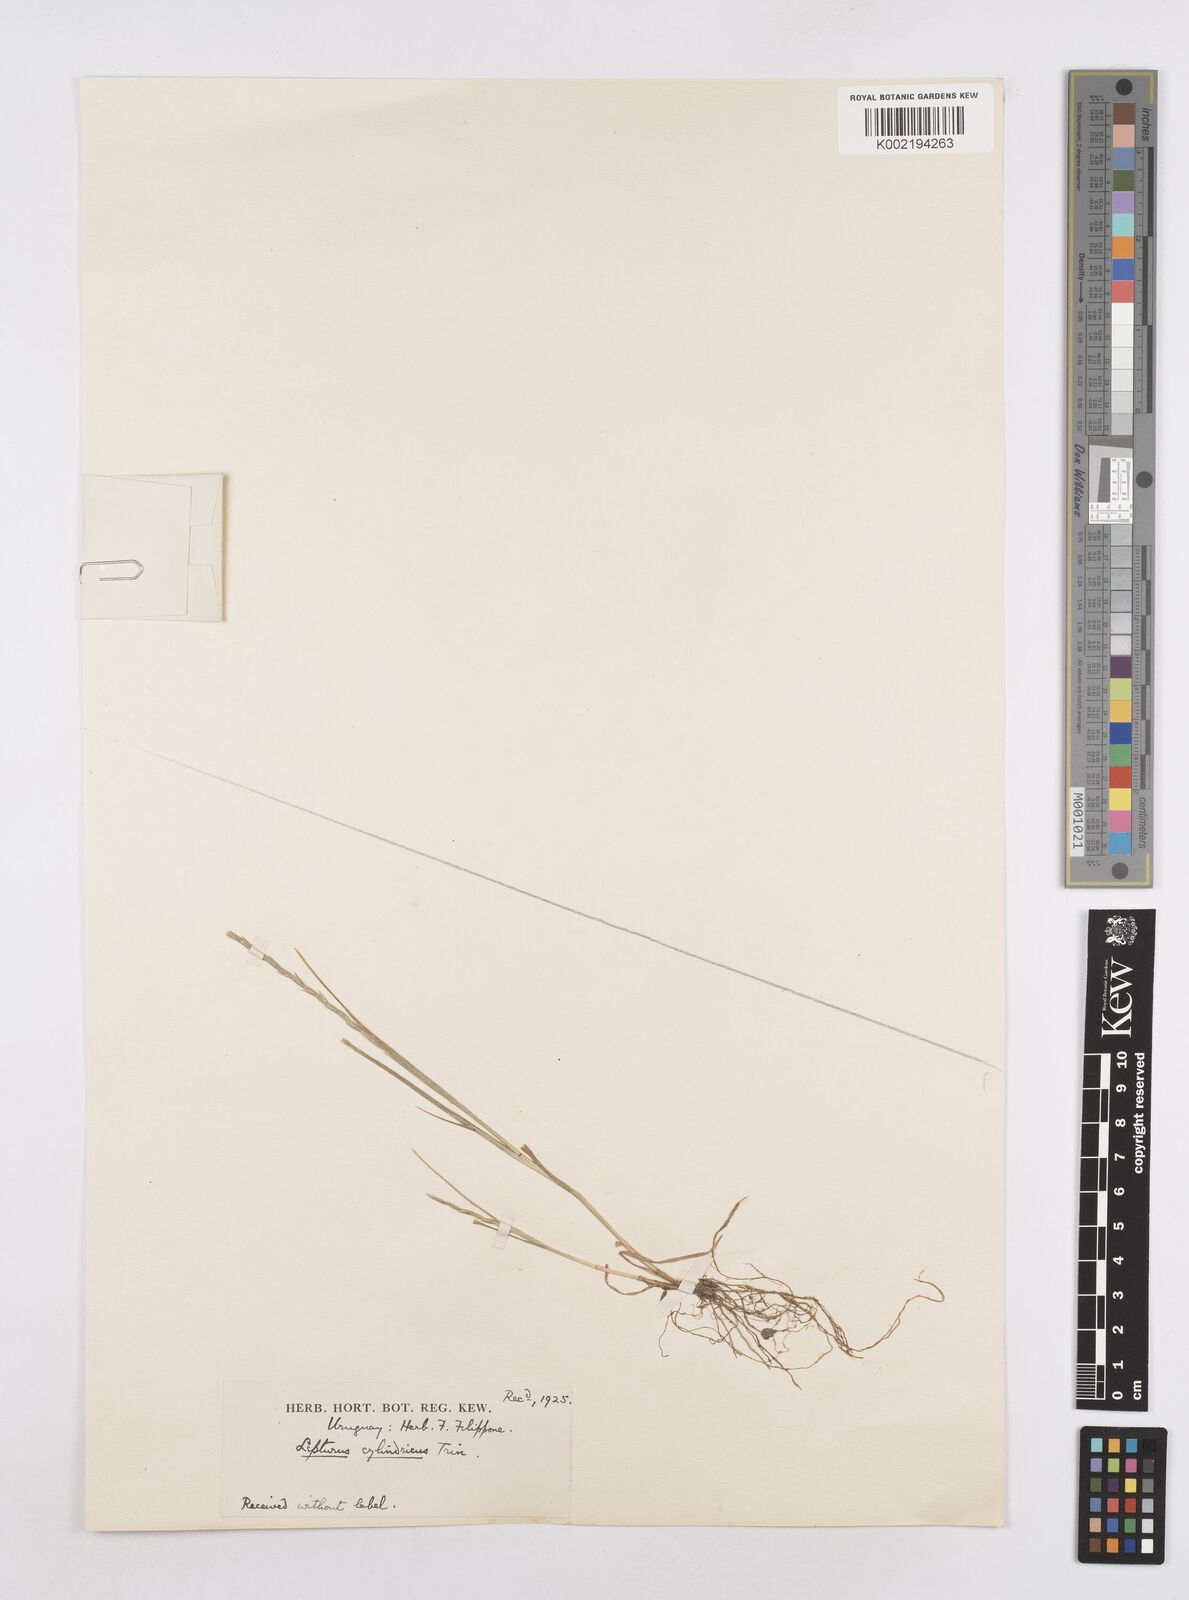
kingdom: Plantae
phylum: Tracheophyta
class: Liliopsida
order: Poales
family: Poaceae
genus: Parapholis
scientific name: Parapholis cylindrica
